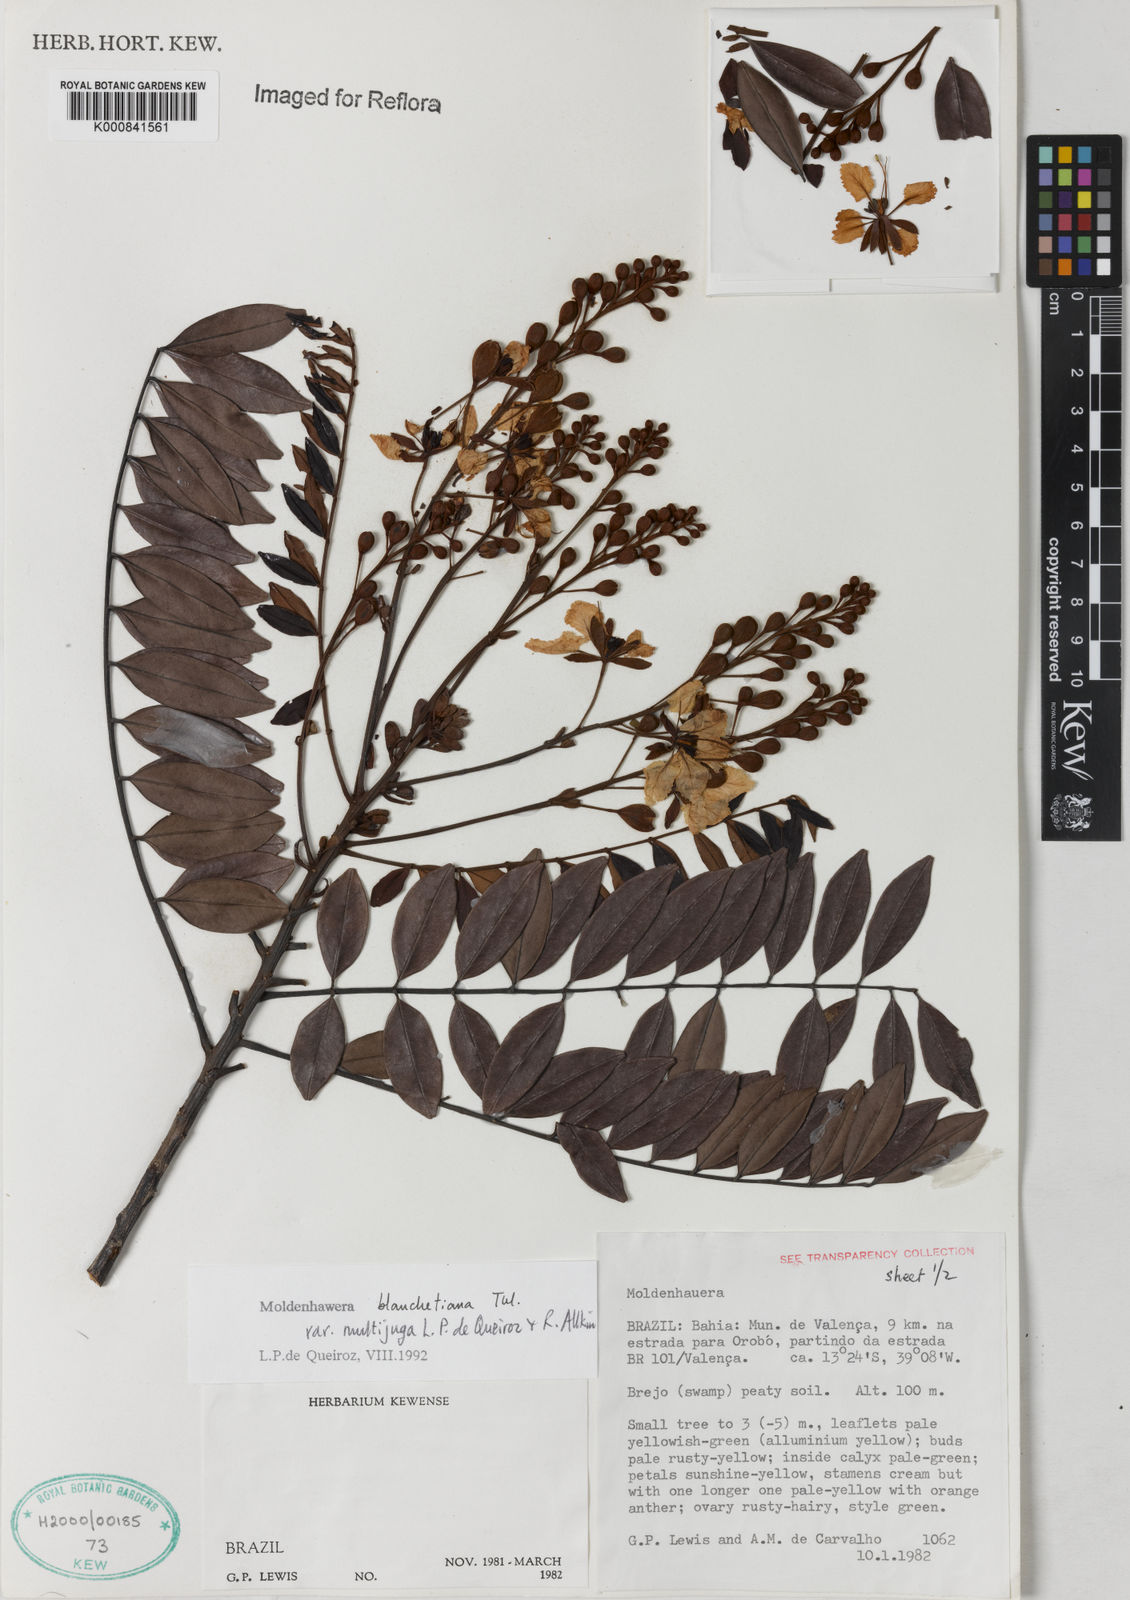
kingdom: Plantae
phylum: Tracheophyta
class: Magnoliopsida
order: Fabales
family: Fabaceae
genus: Moldenhawera
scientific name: Moldenhawera blanchetiana
